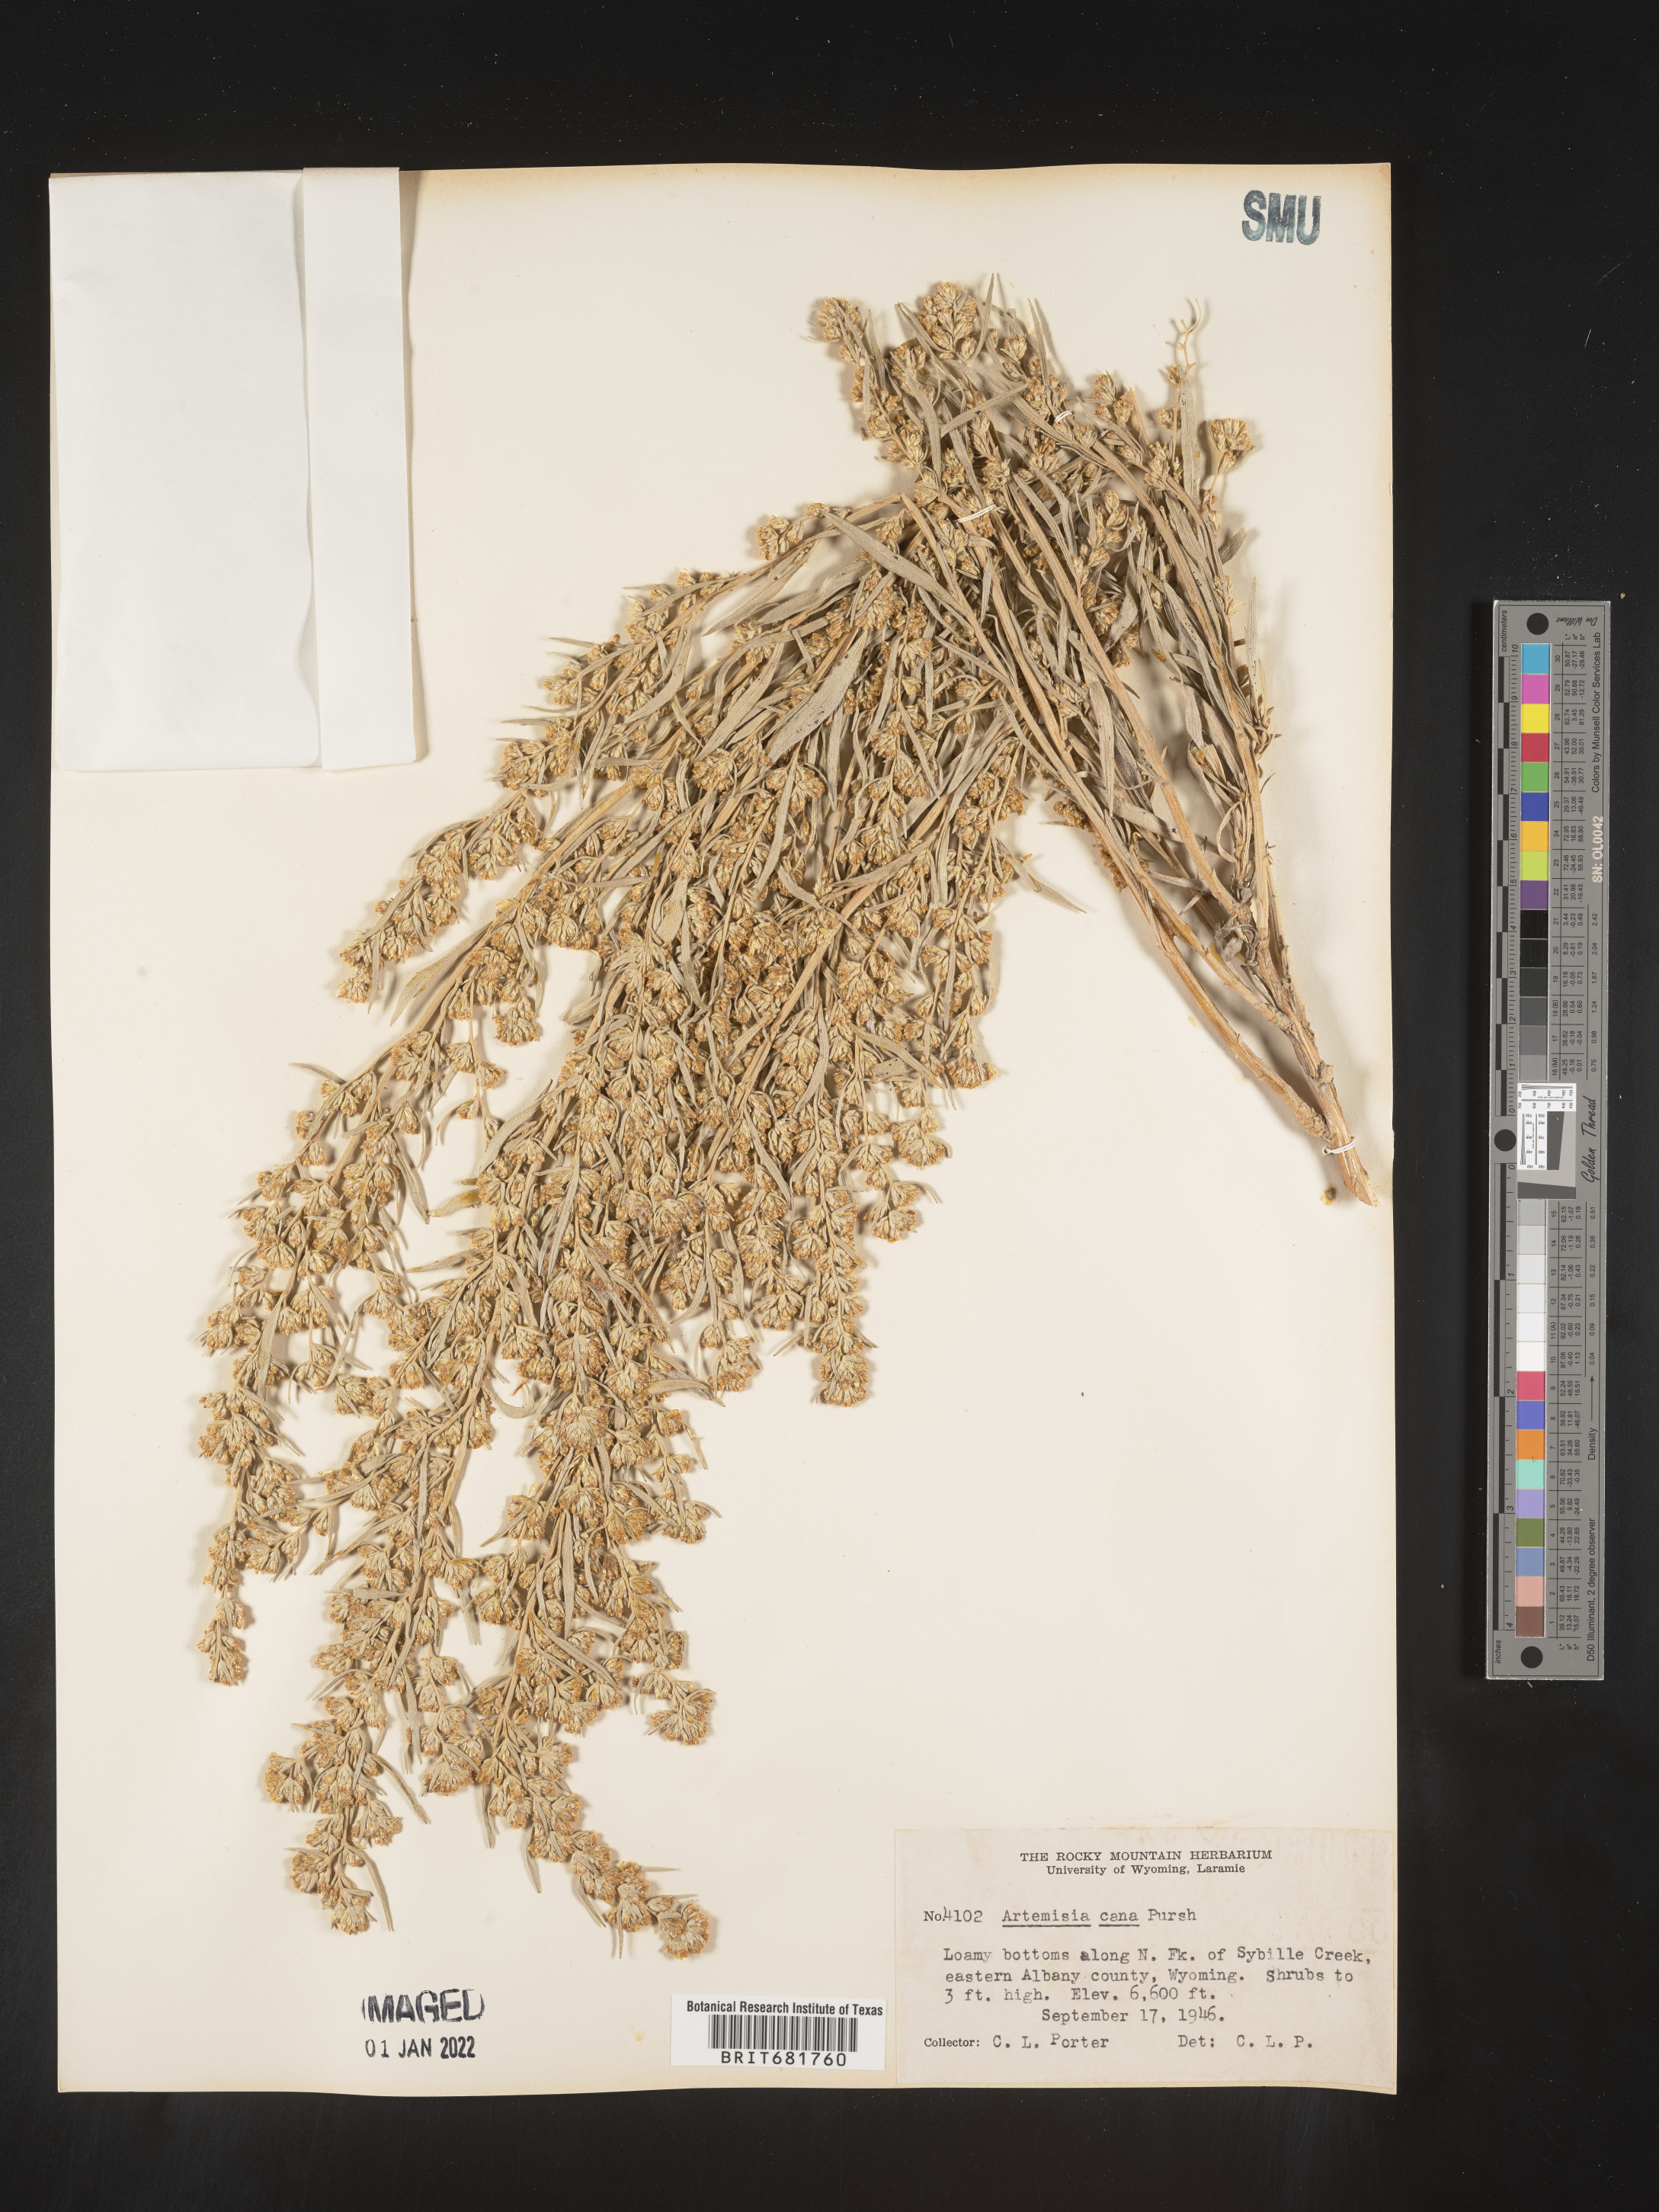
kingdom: Plantae
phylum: Tracheophyta
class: Magnoliopsida
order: Asterales
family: Asteraceae
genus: Artemisia
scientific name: Artemisia cana
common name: Silver sagebrush
